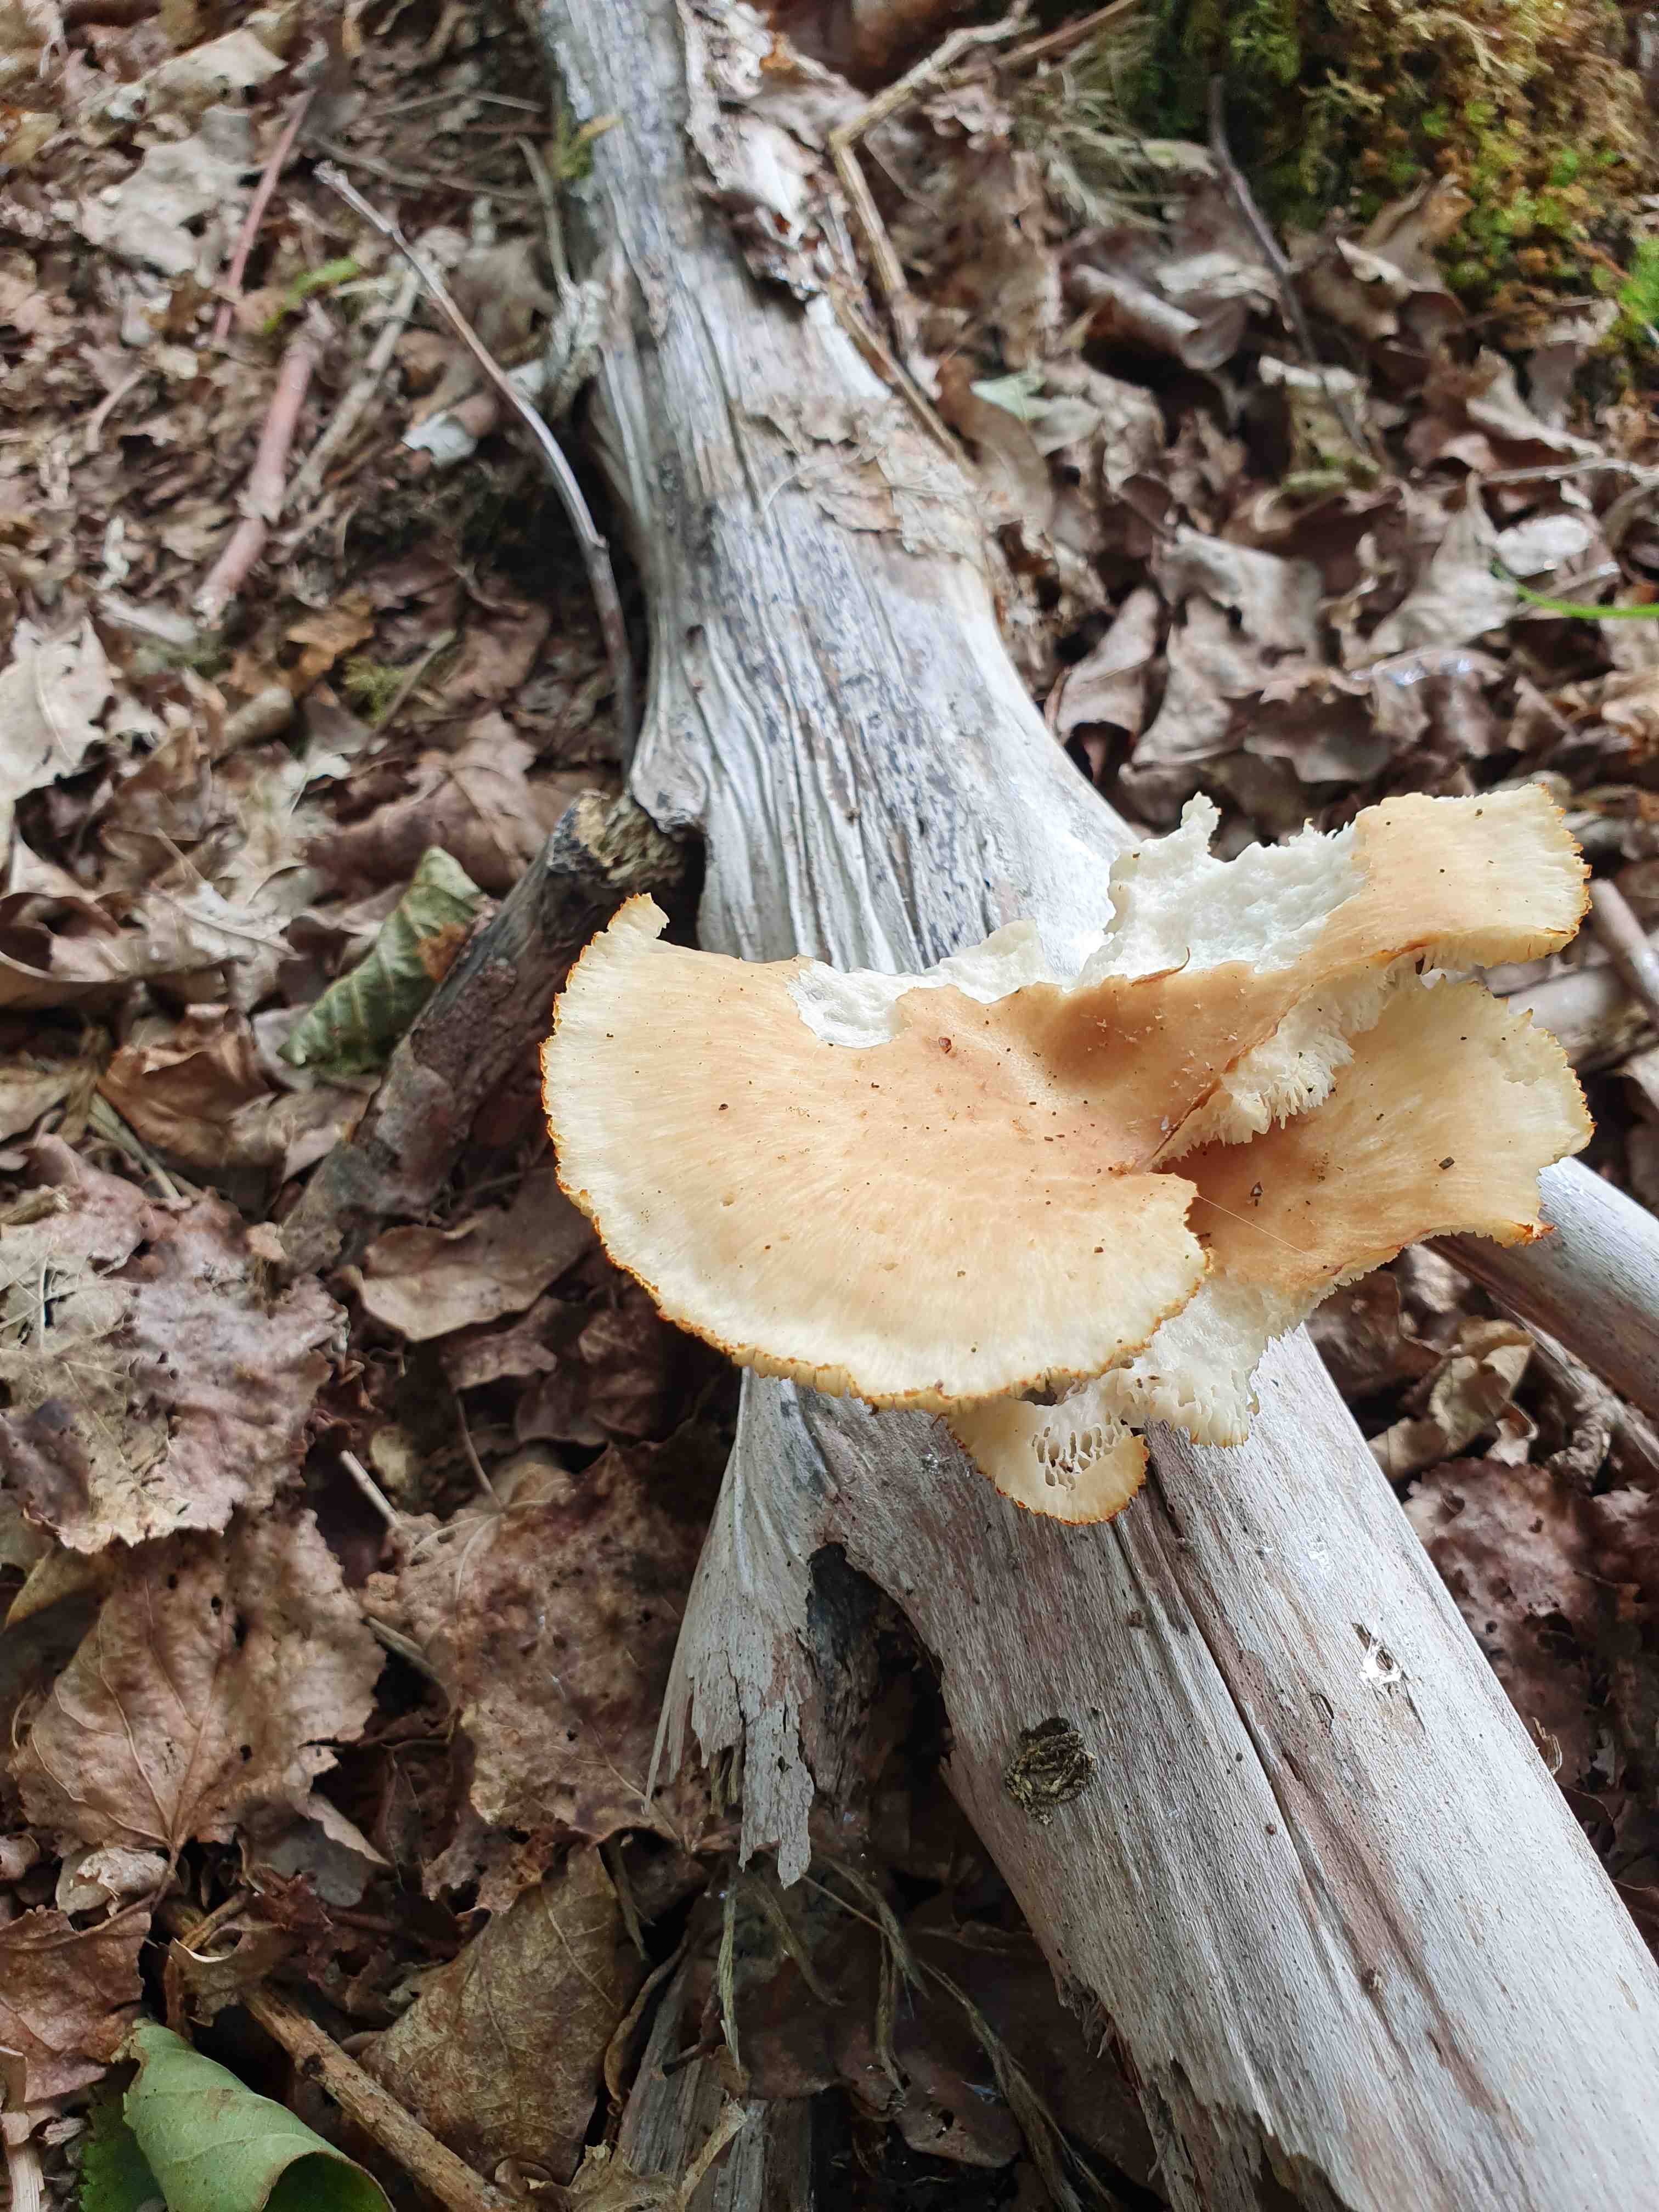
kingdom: Fungi
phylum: Basidiomycota
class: Agaricomycetes
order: Polyporales
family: Polyporaceae
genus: Polyporus
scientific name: Polyporus tuberaster
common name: knoldet stilkporesvamp
